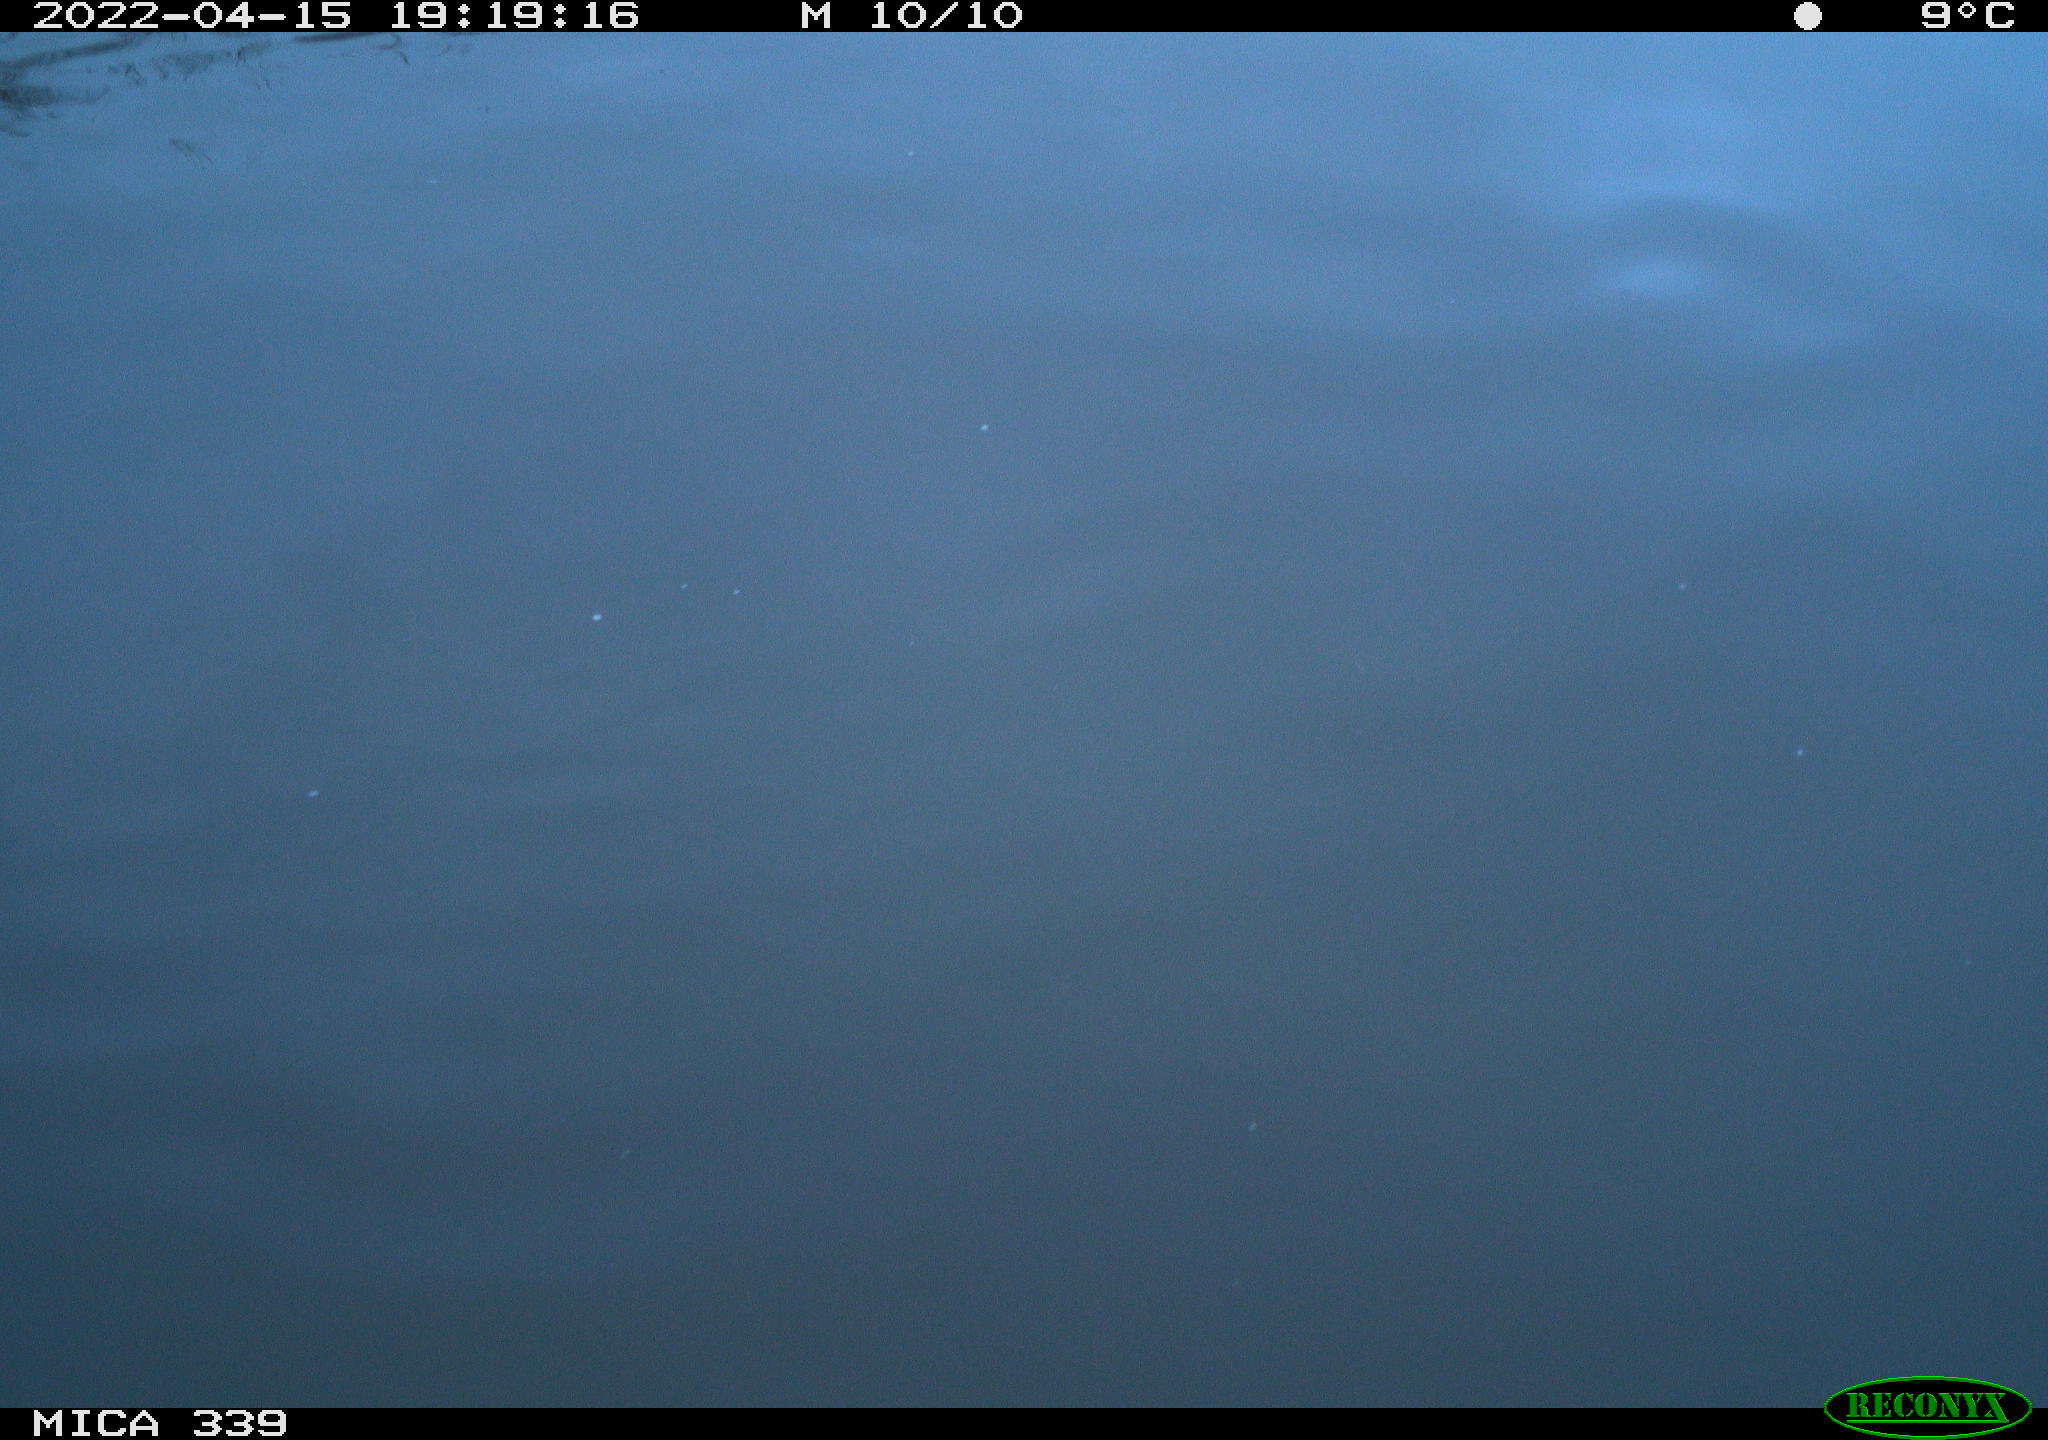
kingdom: Animalia
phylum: Chordata
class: Aves
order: Gruiformes
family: Rallidae
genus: Fulica
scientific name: Fulica atra
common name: Eurasian coot
